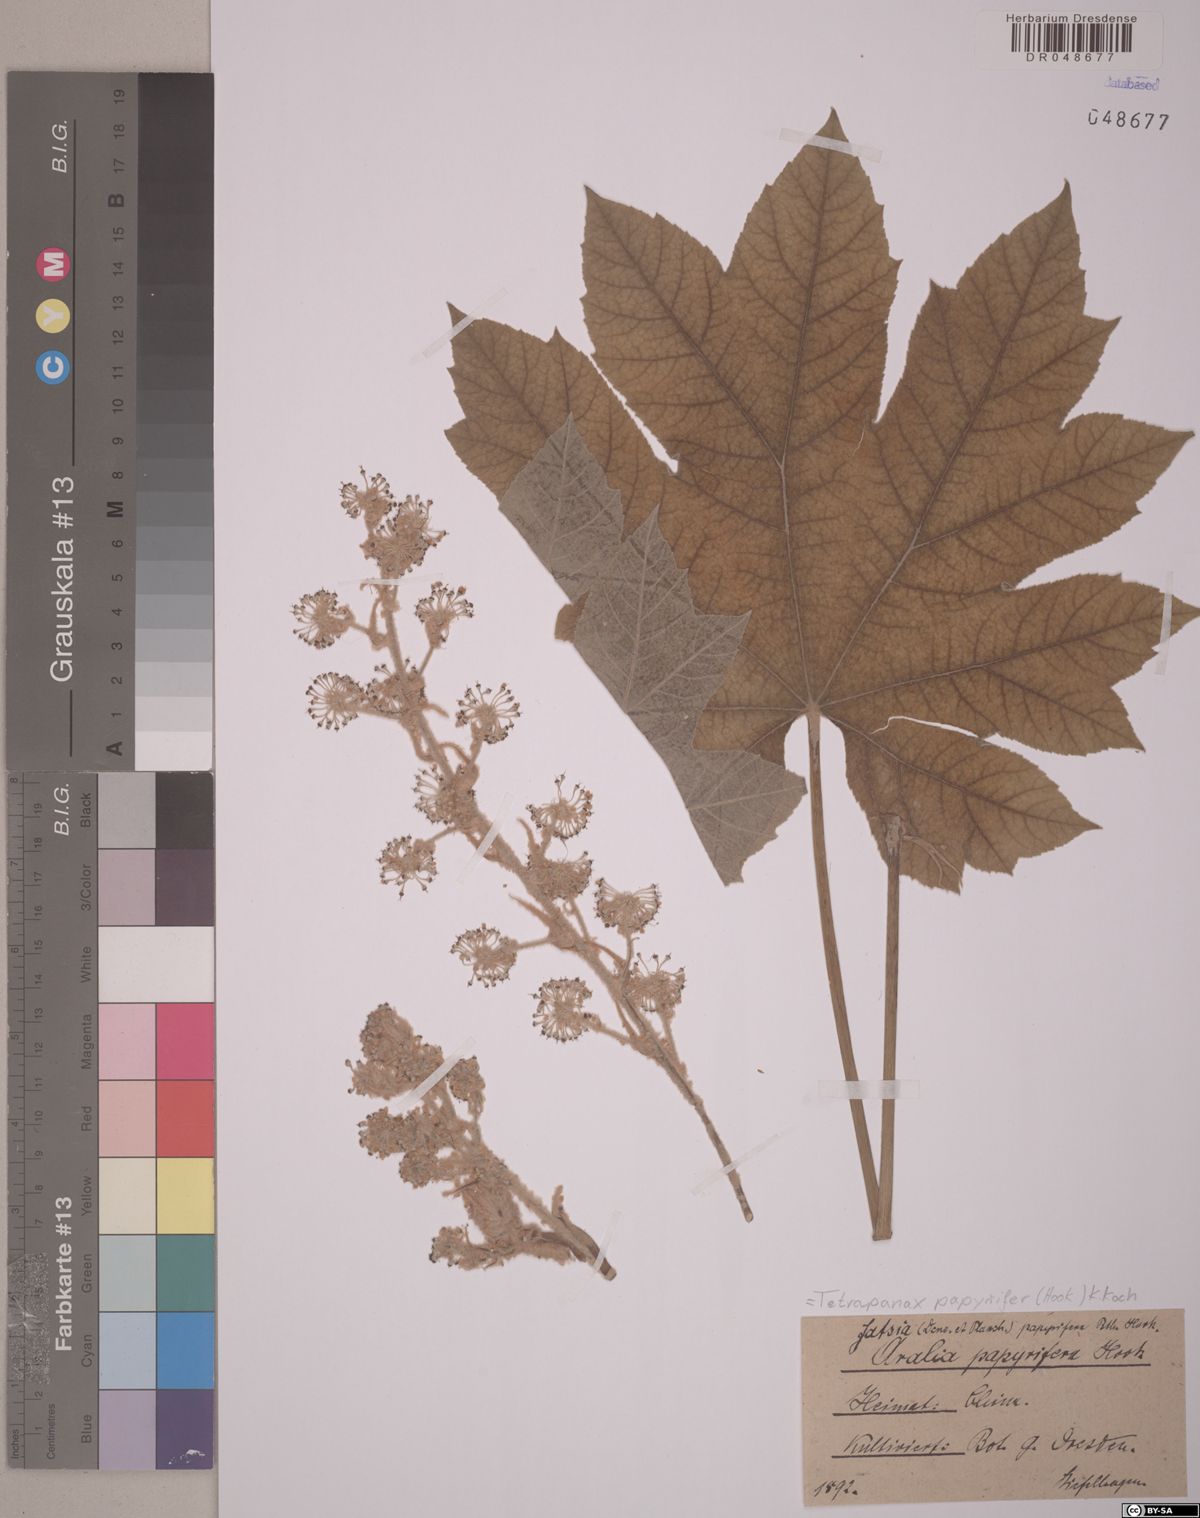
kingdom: Plantae
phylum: Tracheophyta
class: Magnoliopsida
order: Apiales
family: Araliaceae
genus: Tetrapanax
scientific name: Tetrapanax papyrifer
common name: Rice-paper plant
